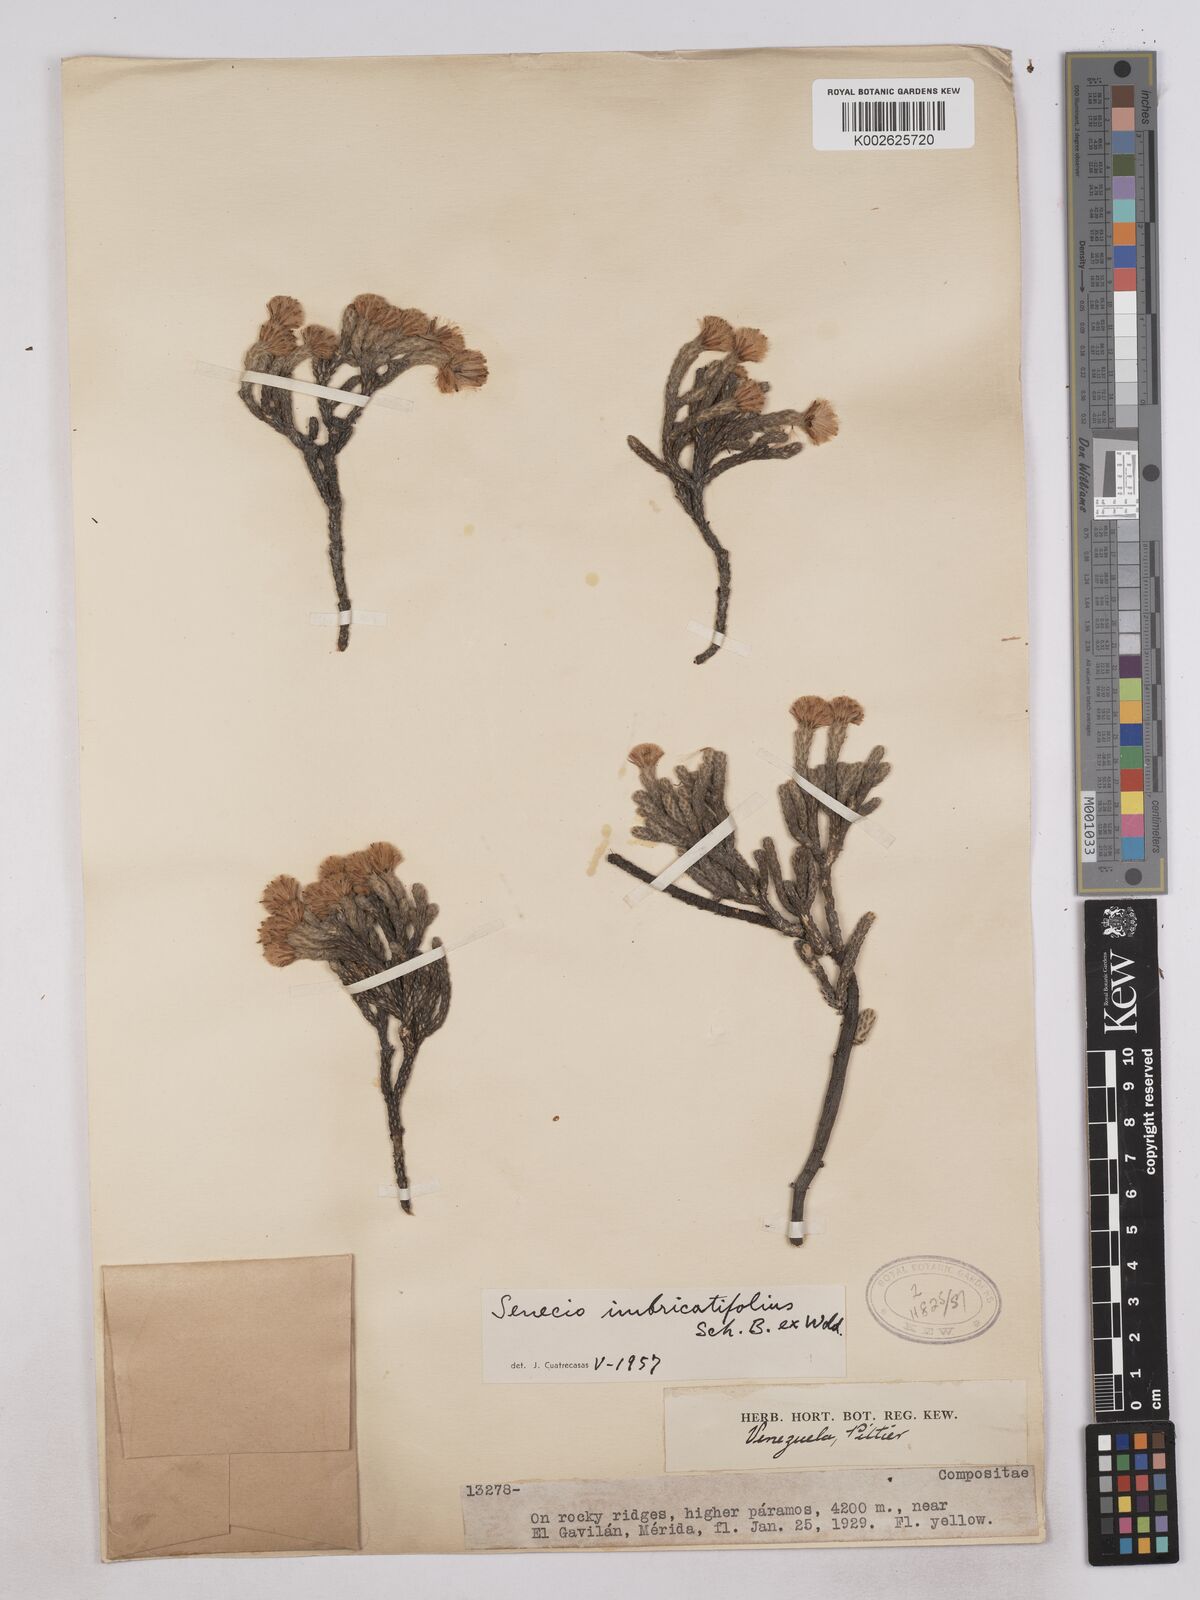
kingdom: Plantae
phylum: Tracheophyta
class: Magnoliopsida
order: Asterales
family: Asteraceae
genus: Monticalia
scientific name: Monticalia imbricatifolia
